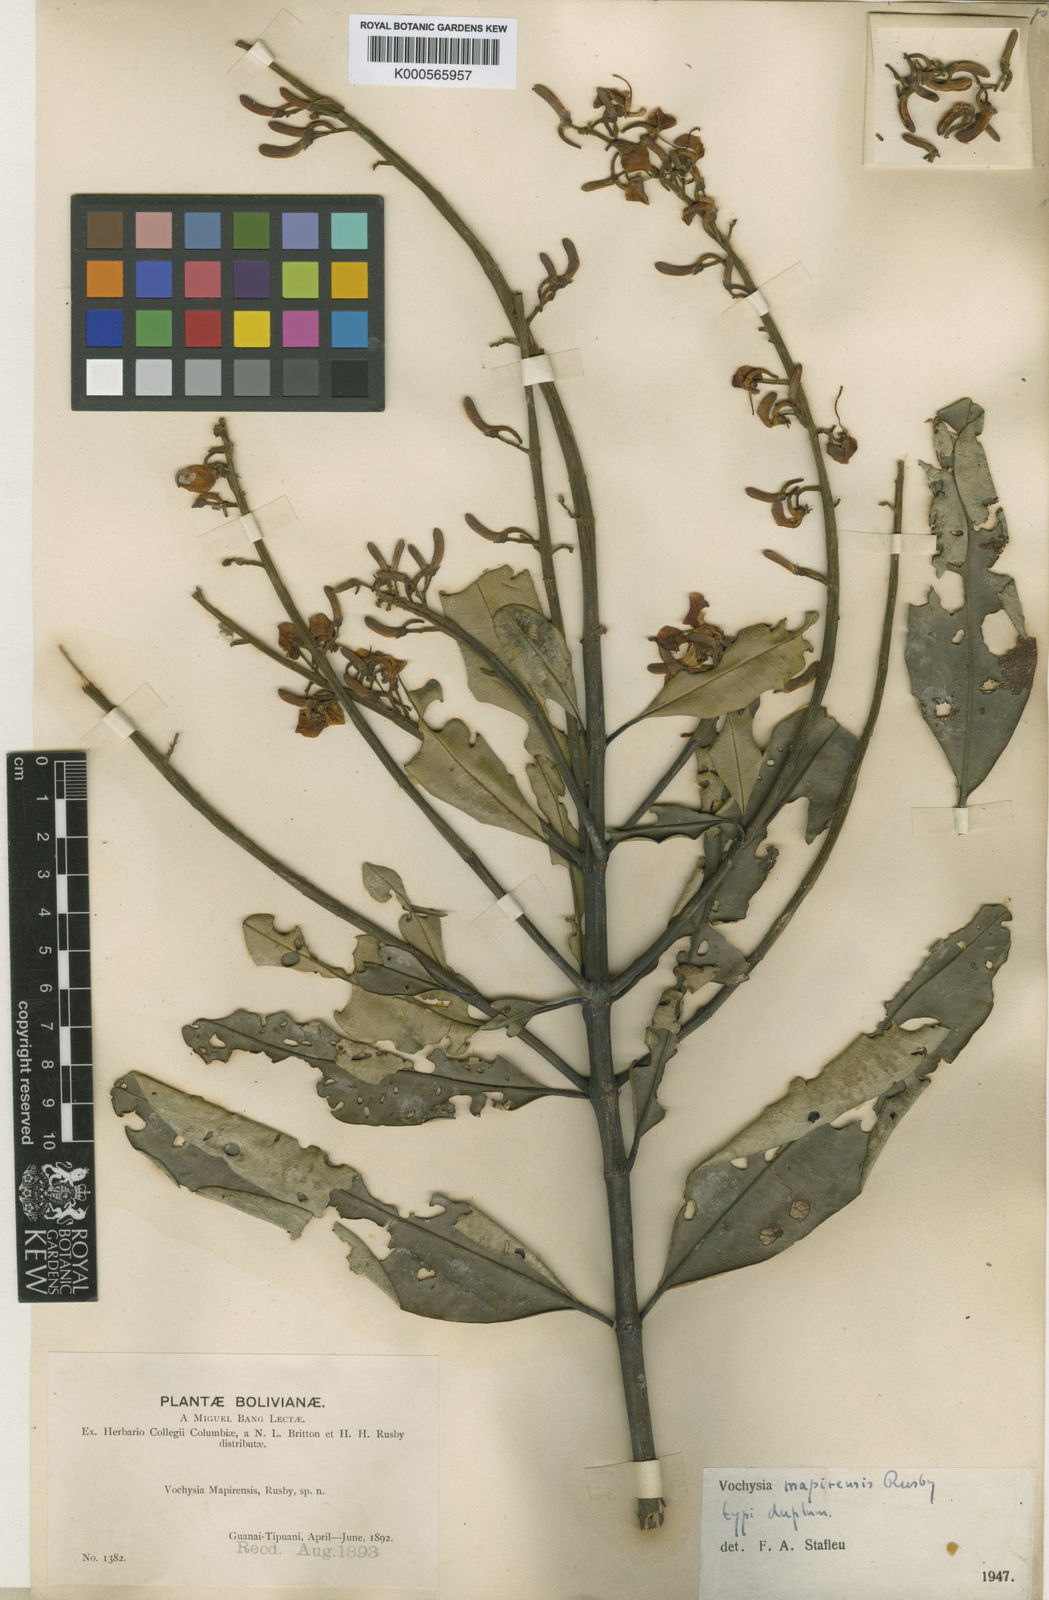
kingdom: Plantae
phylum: Tracheophyta
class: Magnoliopsida
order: Myrtales
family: Vochysiaceae
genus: Vochysia
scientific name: Vochysia mapirensis
